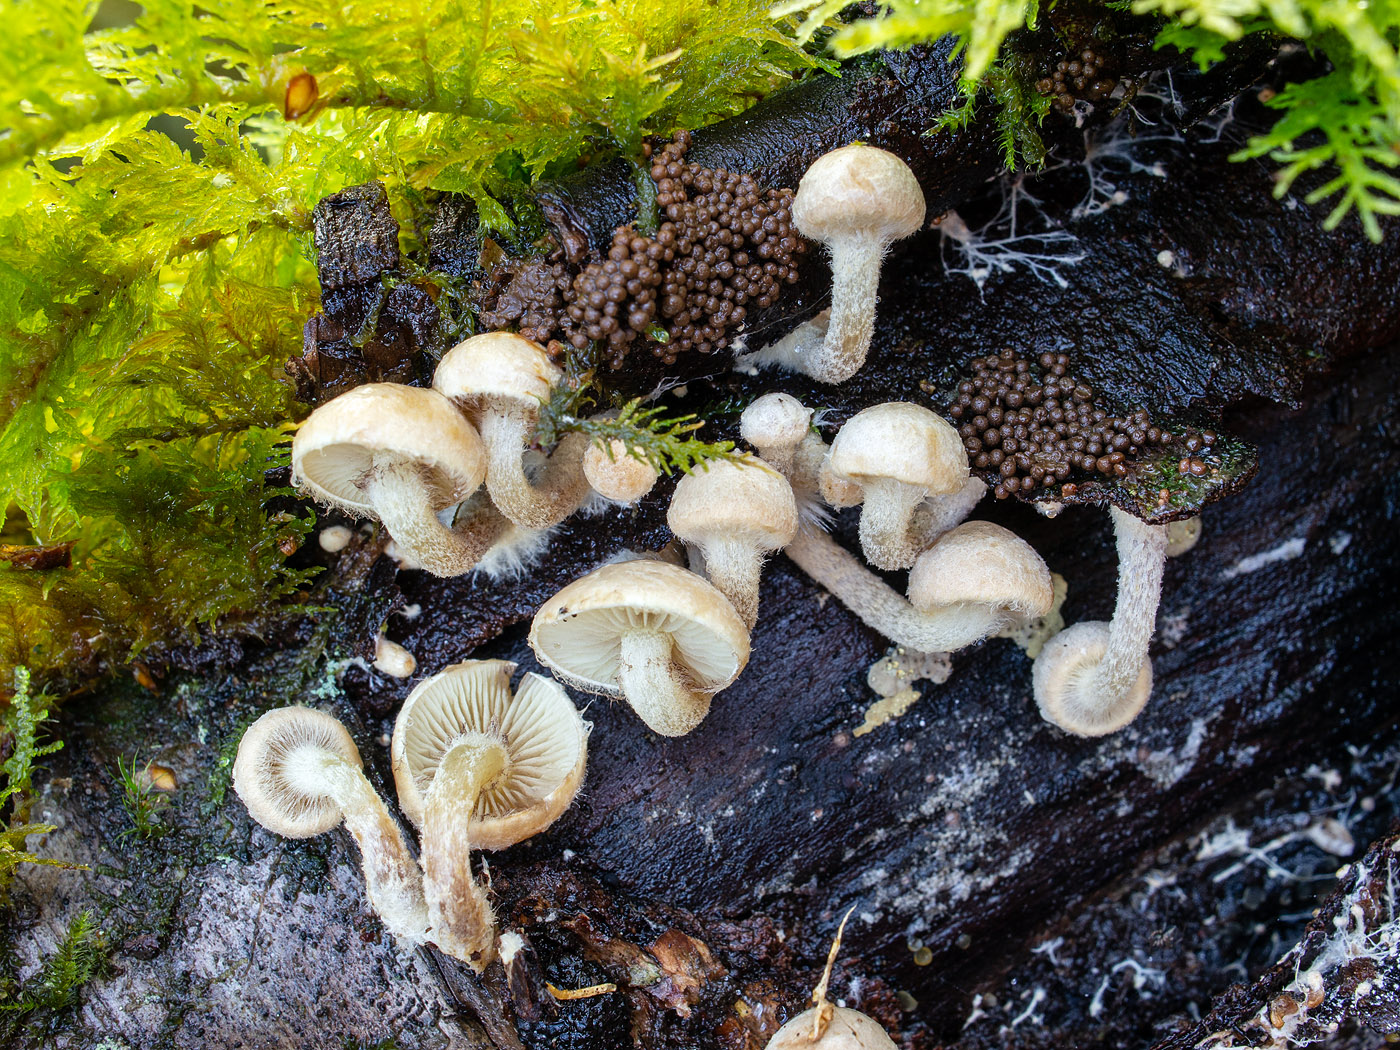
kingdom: Fungi
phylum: Basidiomycota
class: Agaricomycetes
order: Agaricales
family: Strophariaceae
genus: Pholiota
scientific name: Pholiota scamba
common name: dværg-skælhat
